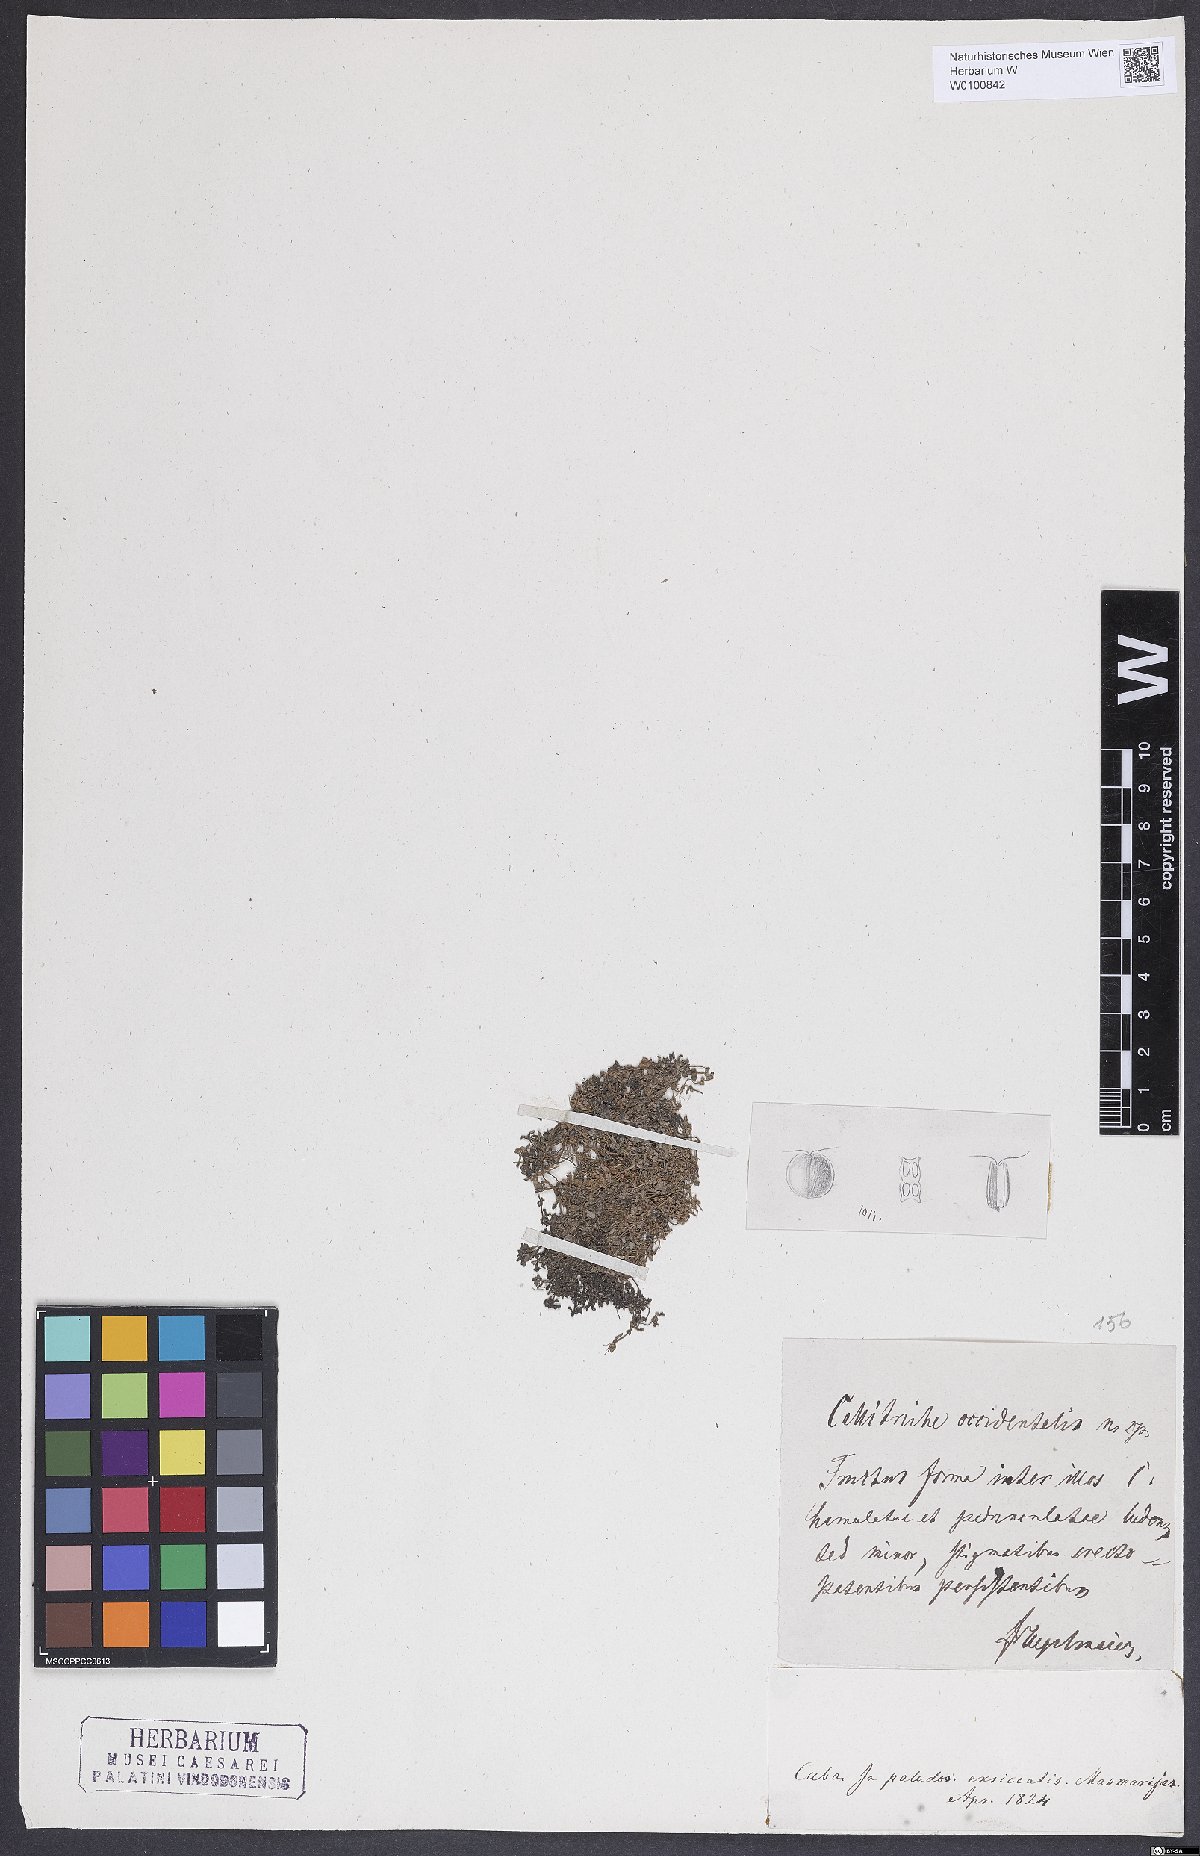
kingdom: Plantae
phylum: Tracheophyta
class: Magnoliopsida
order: Lamiales
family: Plantaginaceae
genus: Callitriche
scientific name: Callitriche occidentalis
